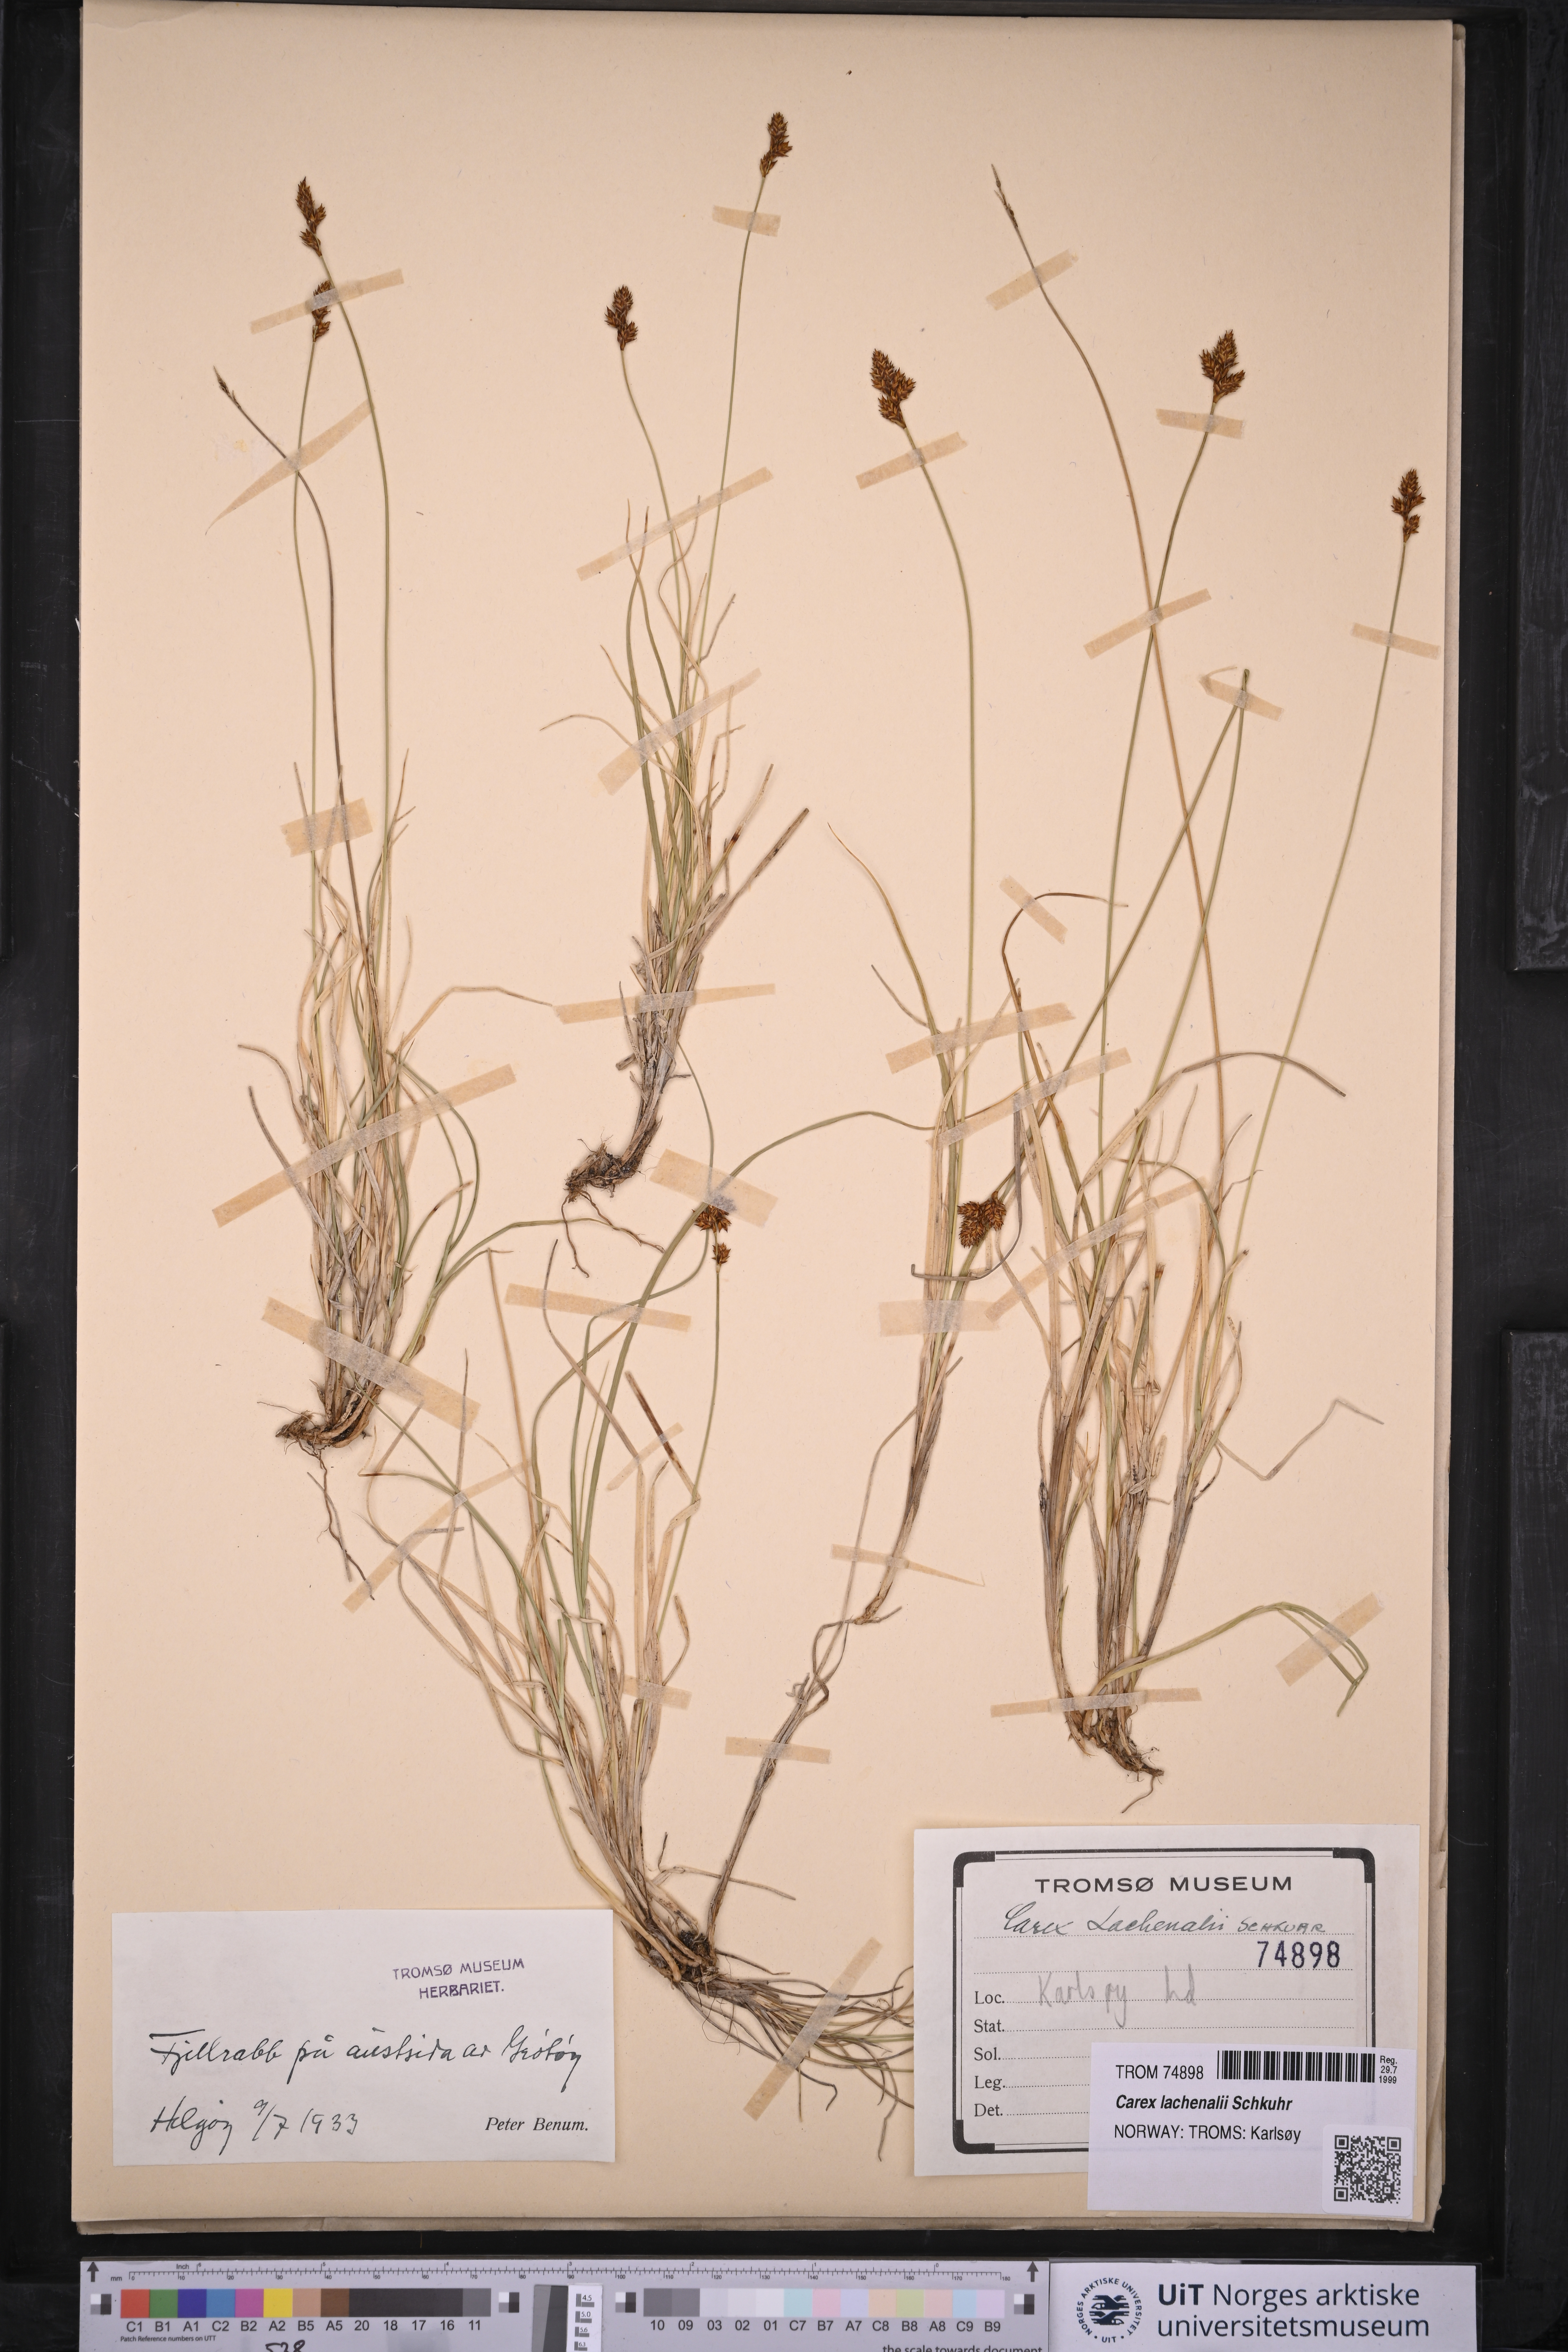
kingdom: Plantae
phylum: Tracheophyta
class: Liliopsida
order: Poales
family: Cyperaceae
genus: Carex
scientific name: Carex lachenalii
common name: Hare's-foot sedge
